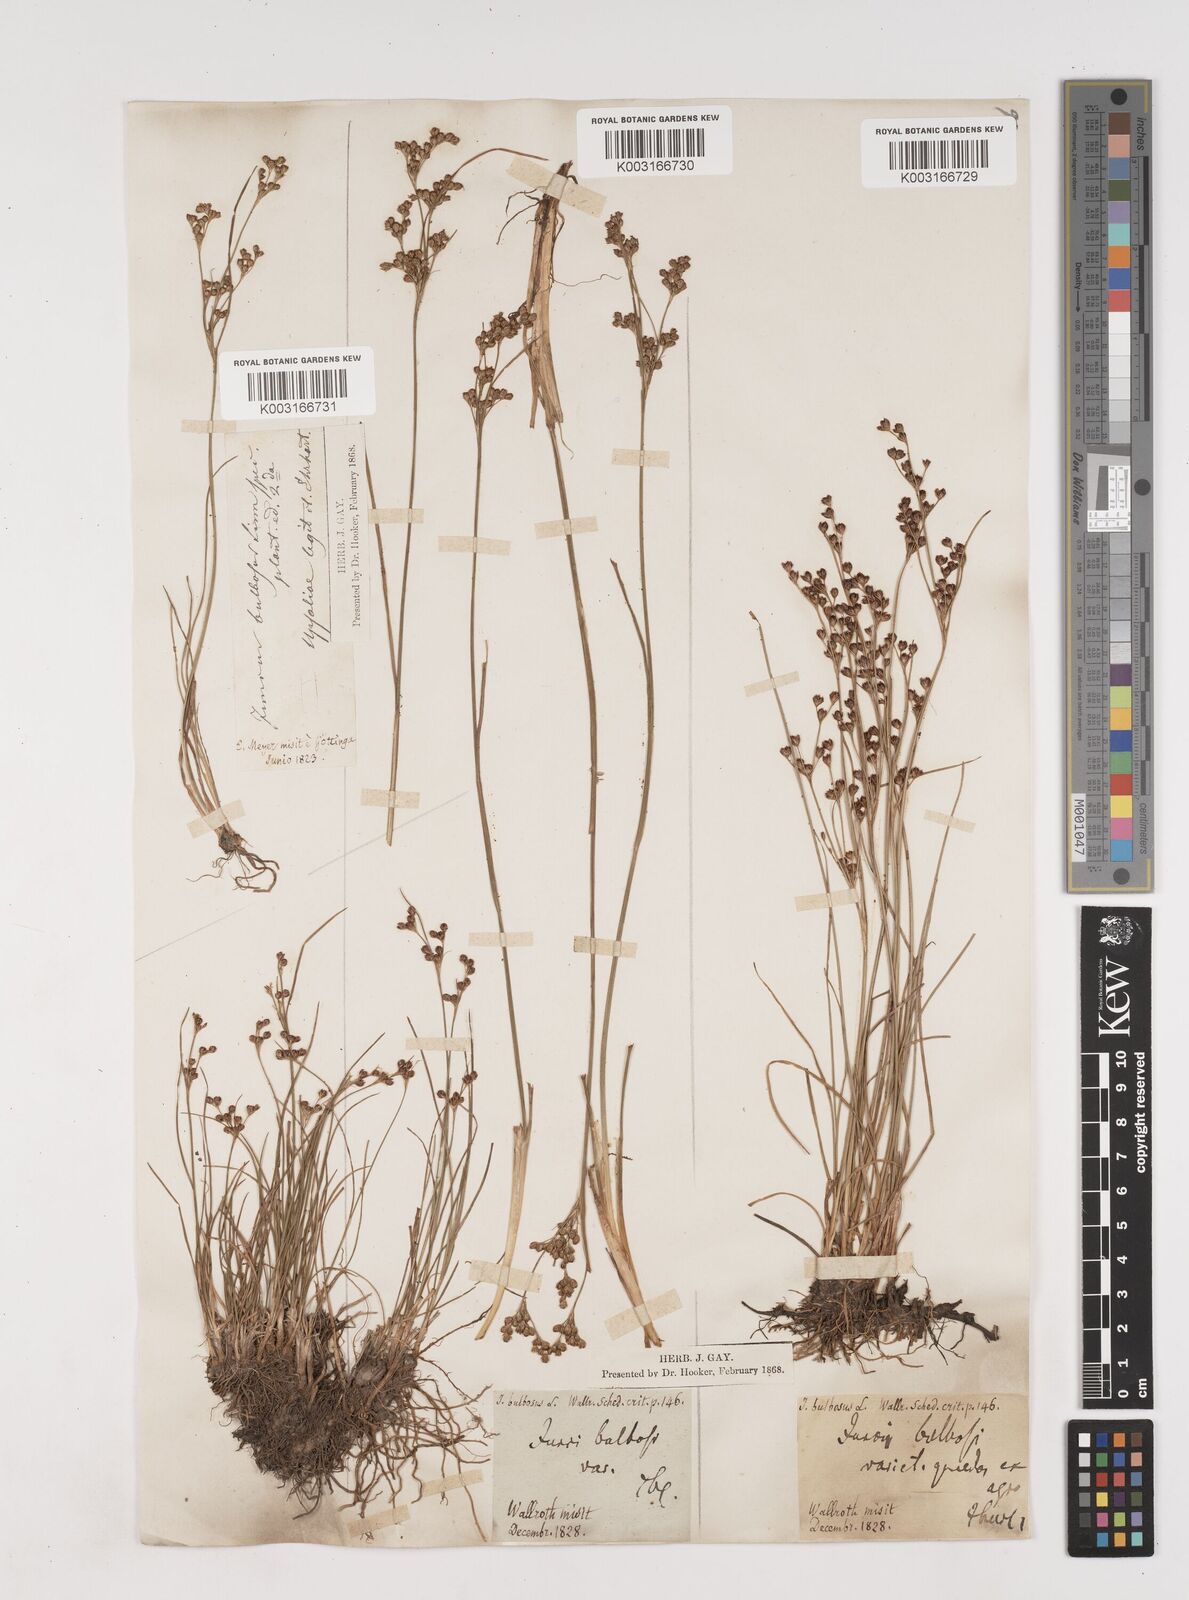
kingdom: Plantae
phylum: Tracheophyta
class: Liliopsida
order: Poales
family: Juncaceae
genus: Juncus
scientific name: Juncus
